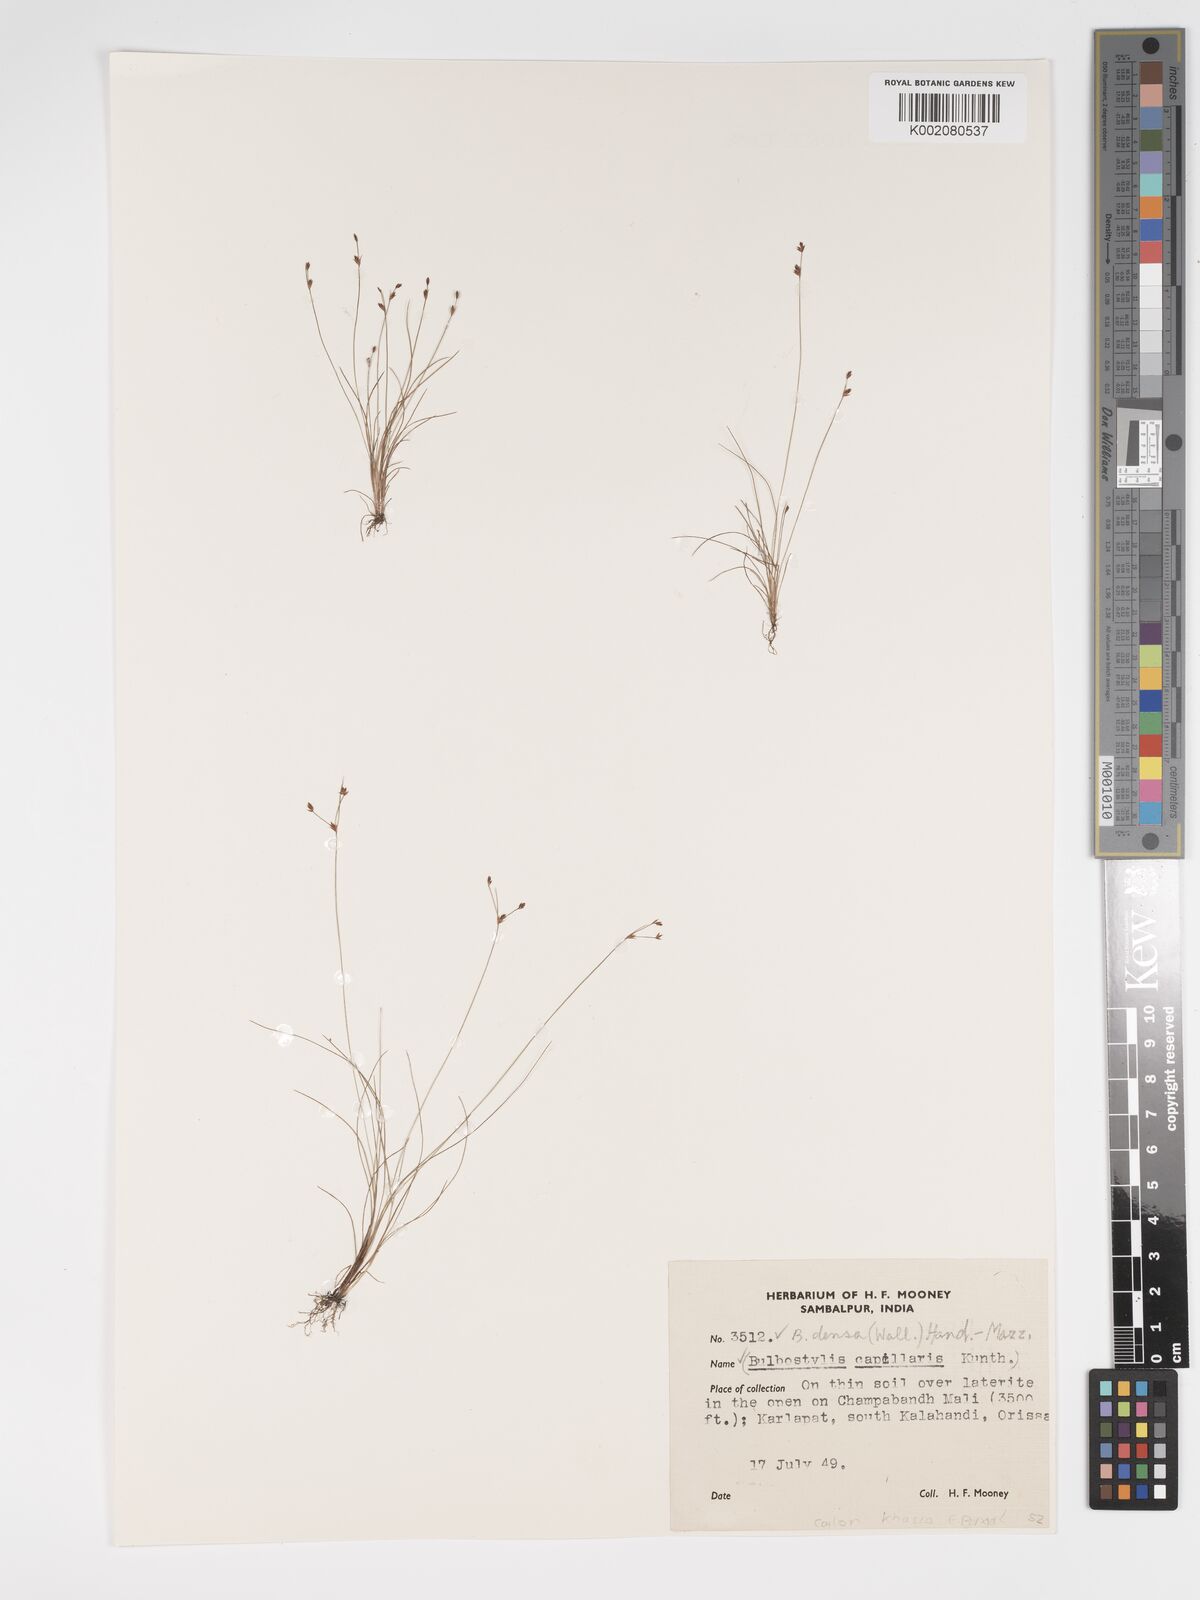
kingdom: Plantae
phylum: Tracheophyta
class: Liliopsida
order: Poales
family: Cyperaceae
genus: Bulbostylis
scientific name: Bulbostylis densa
